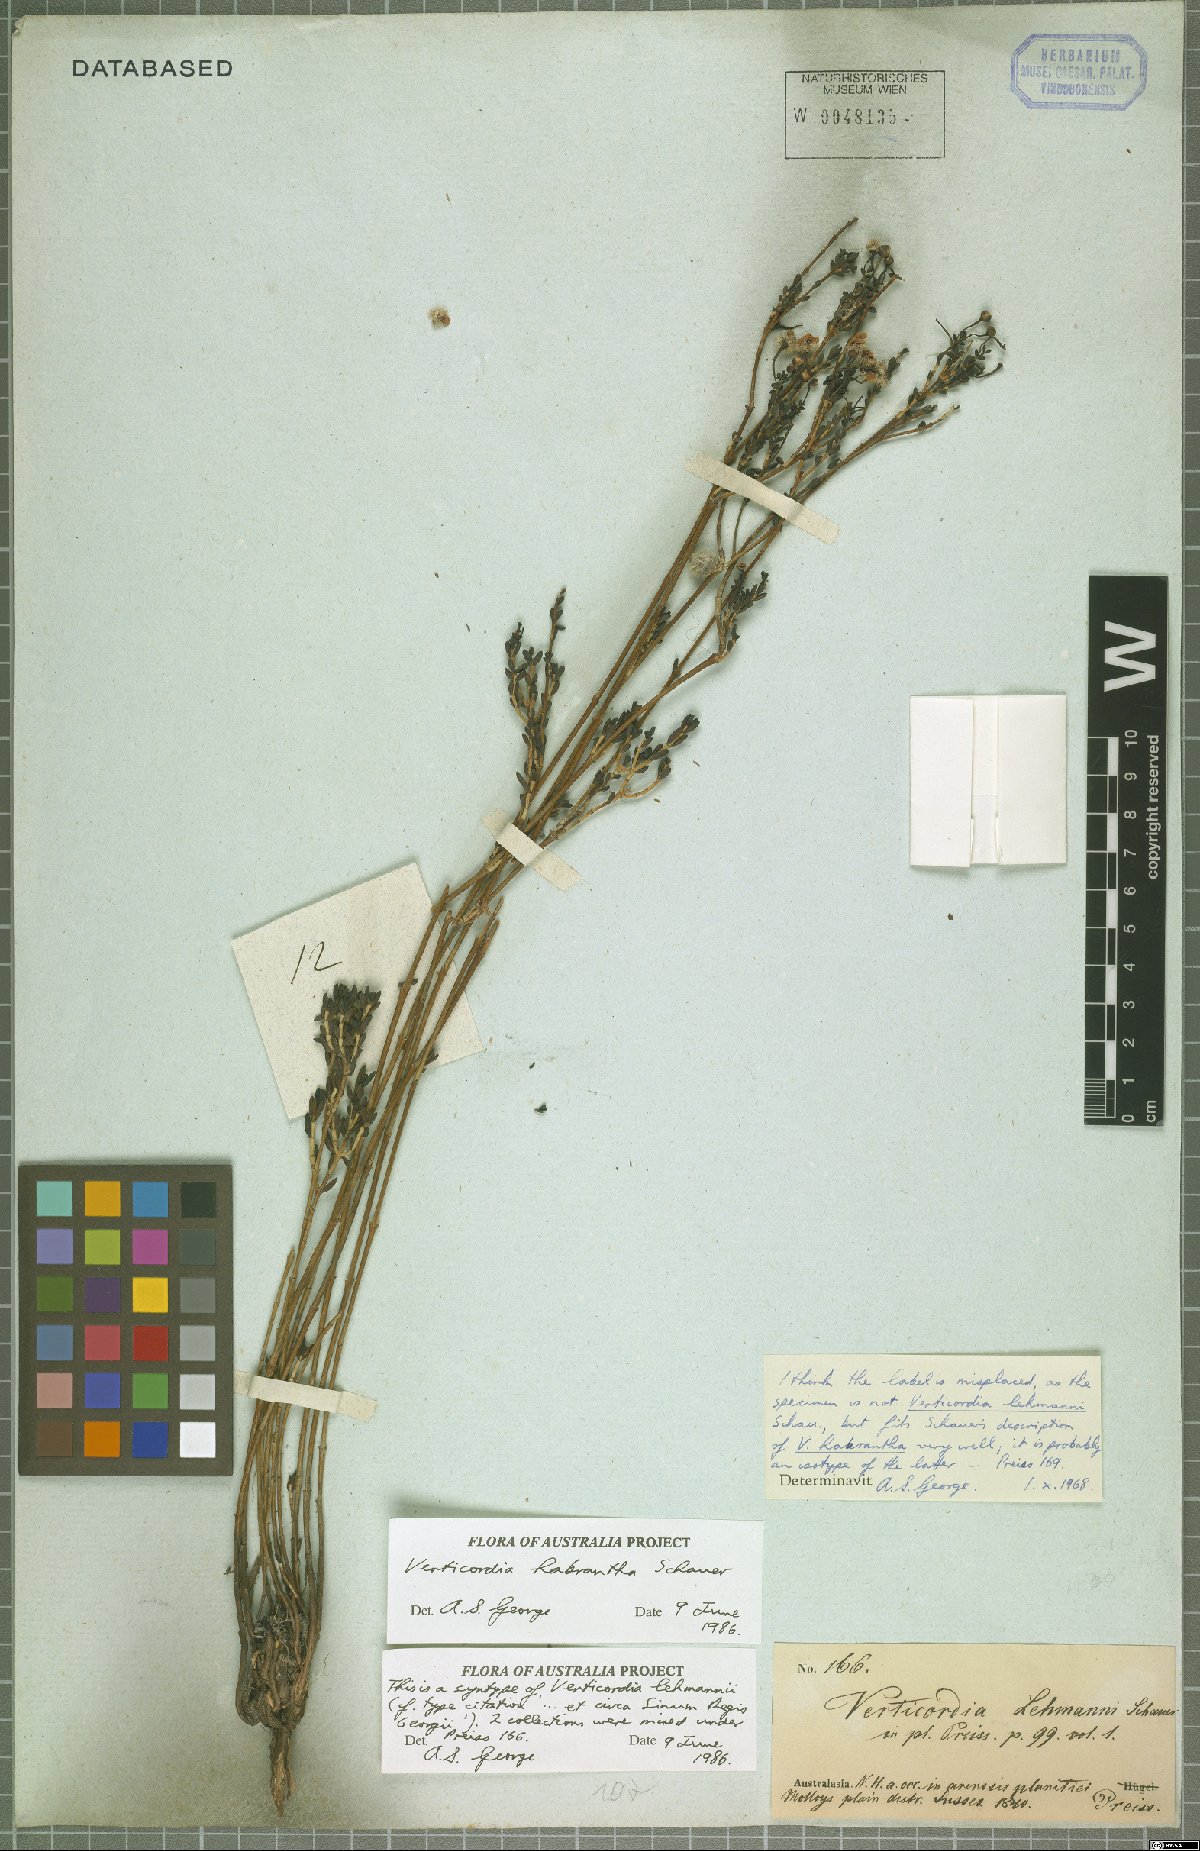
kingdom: Plantae
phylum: Tracheophyta
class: Magnoliopsida
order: Myrtales
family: Myrtaceae
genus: Verticordia
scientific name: Verticordia habrantha
